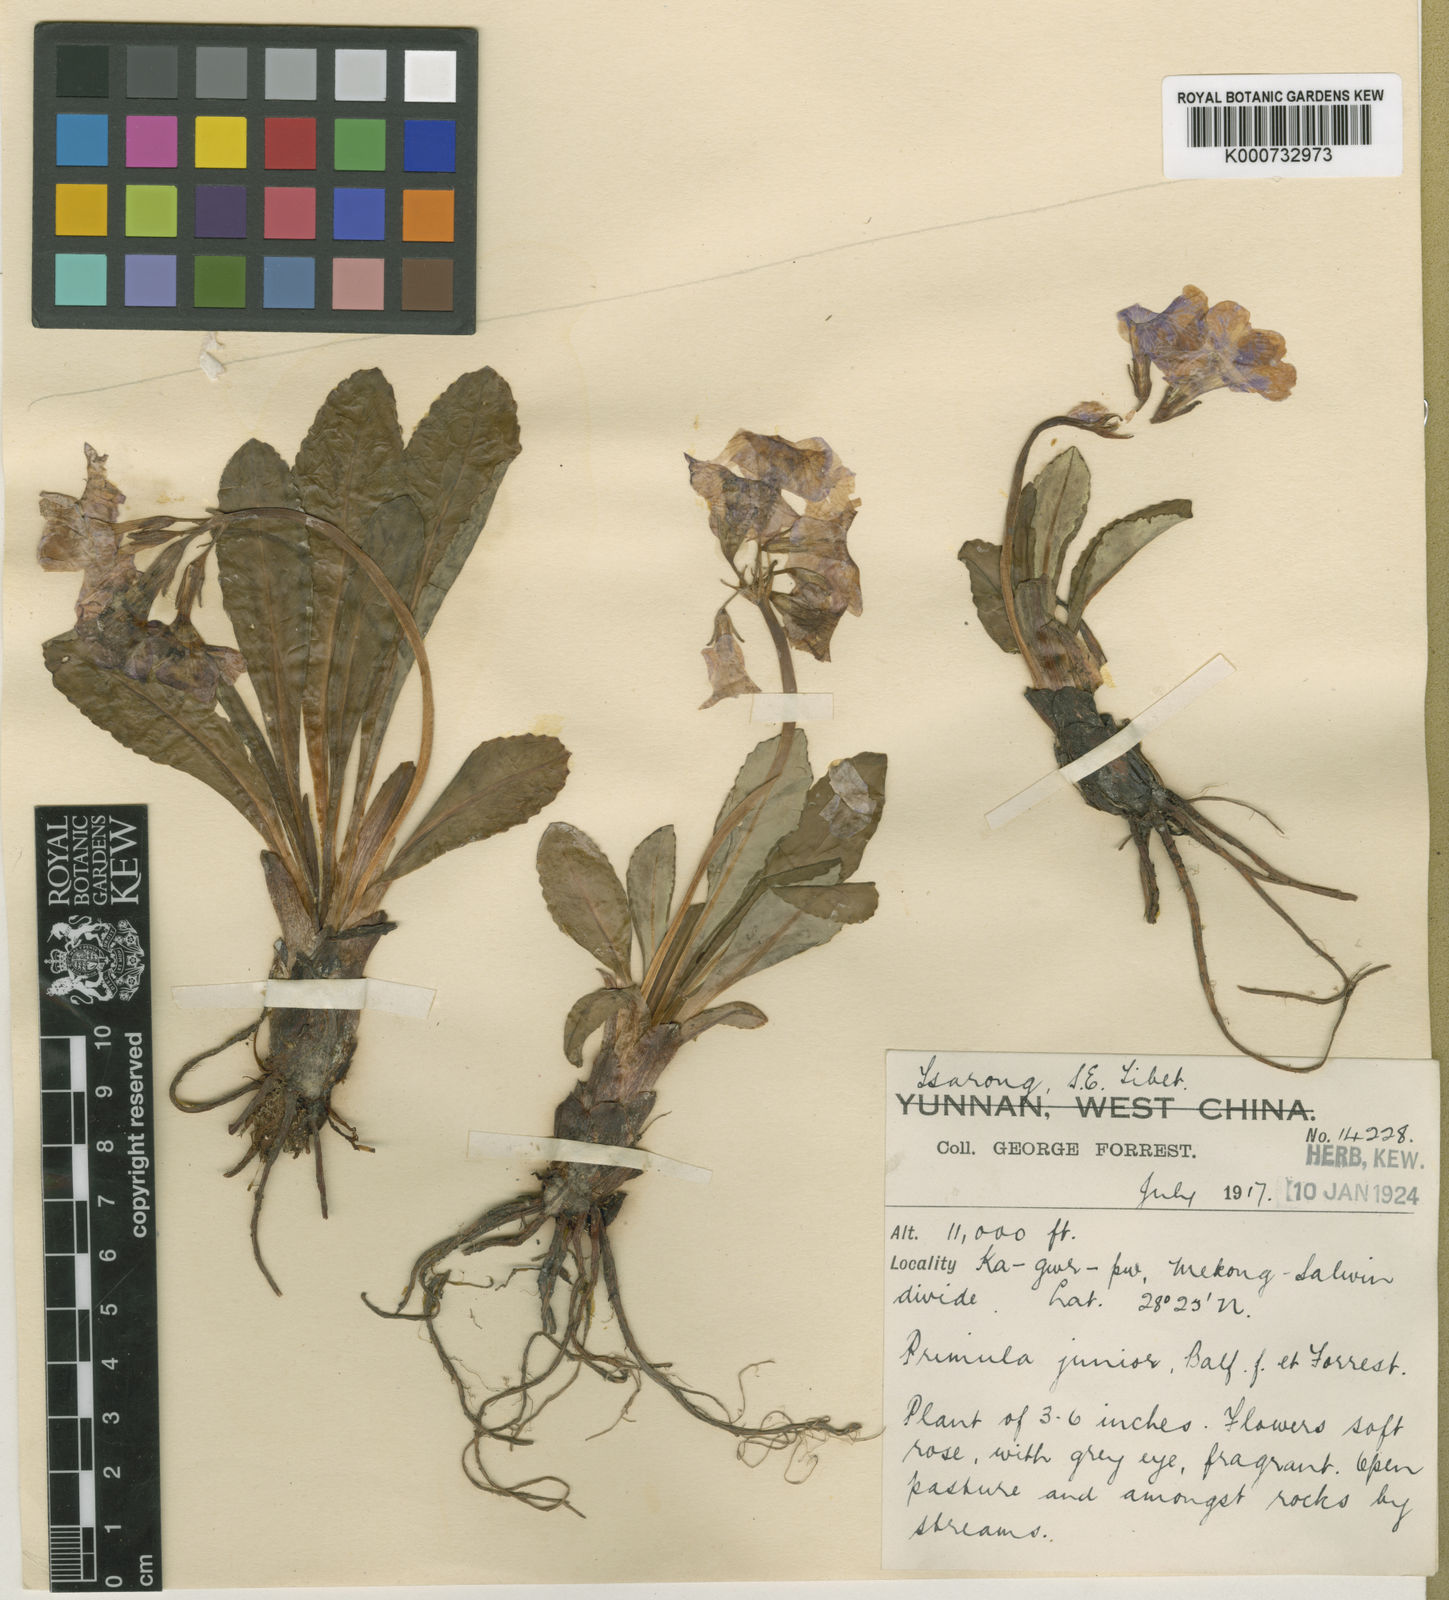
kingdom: Plantae
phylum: Tracheophyta
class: Magnoliopsida
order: Ericales
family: Primulaceae
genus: Primula
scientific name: Primula
